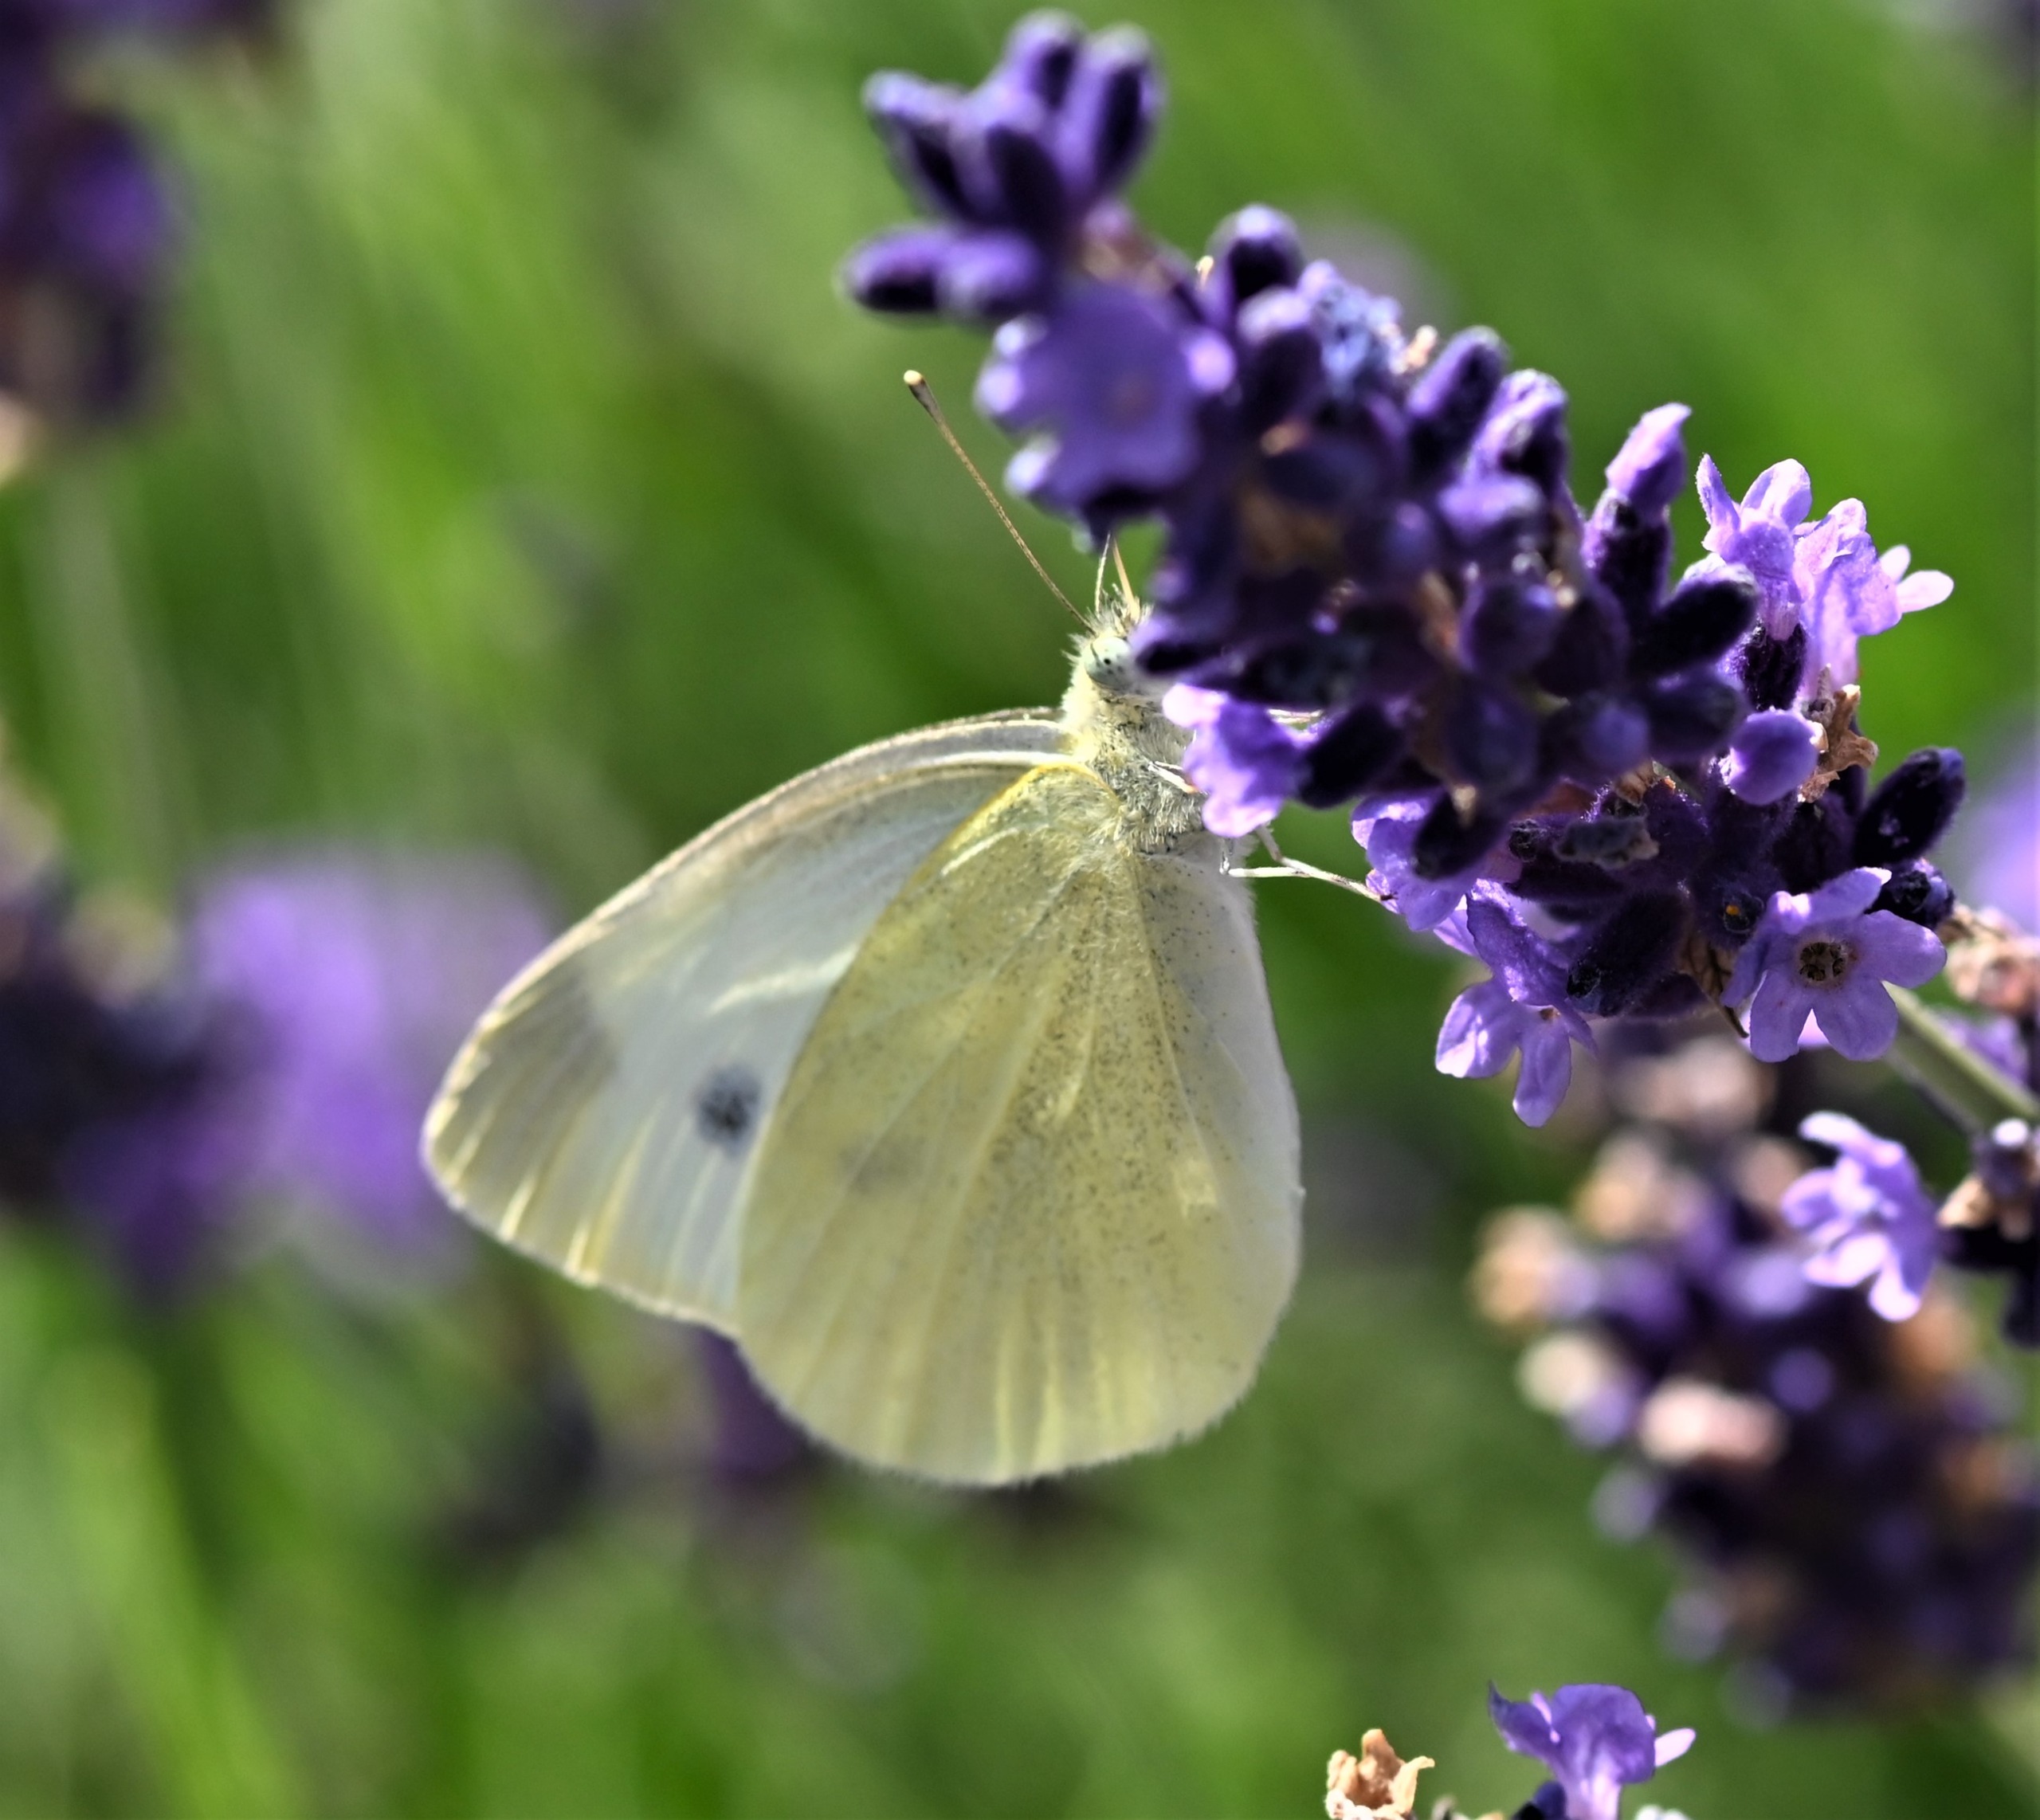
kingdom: Animalia
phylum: Arthropoda
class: Insecta
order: Lepidoptera
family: Pieridae
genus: Pieris
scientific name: Pieris rapae
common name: Lille kålsommerfugl
